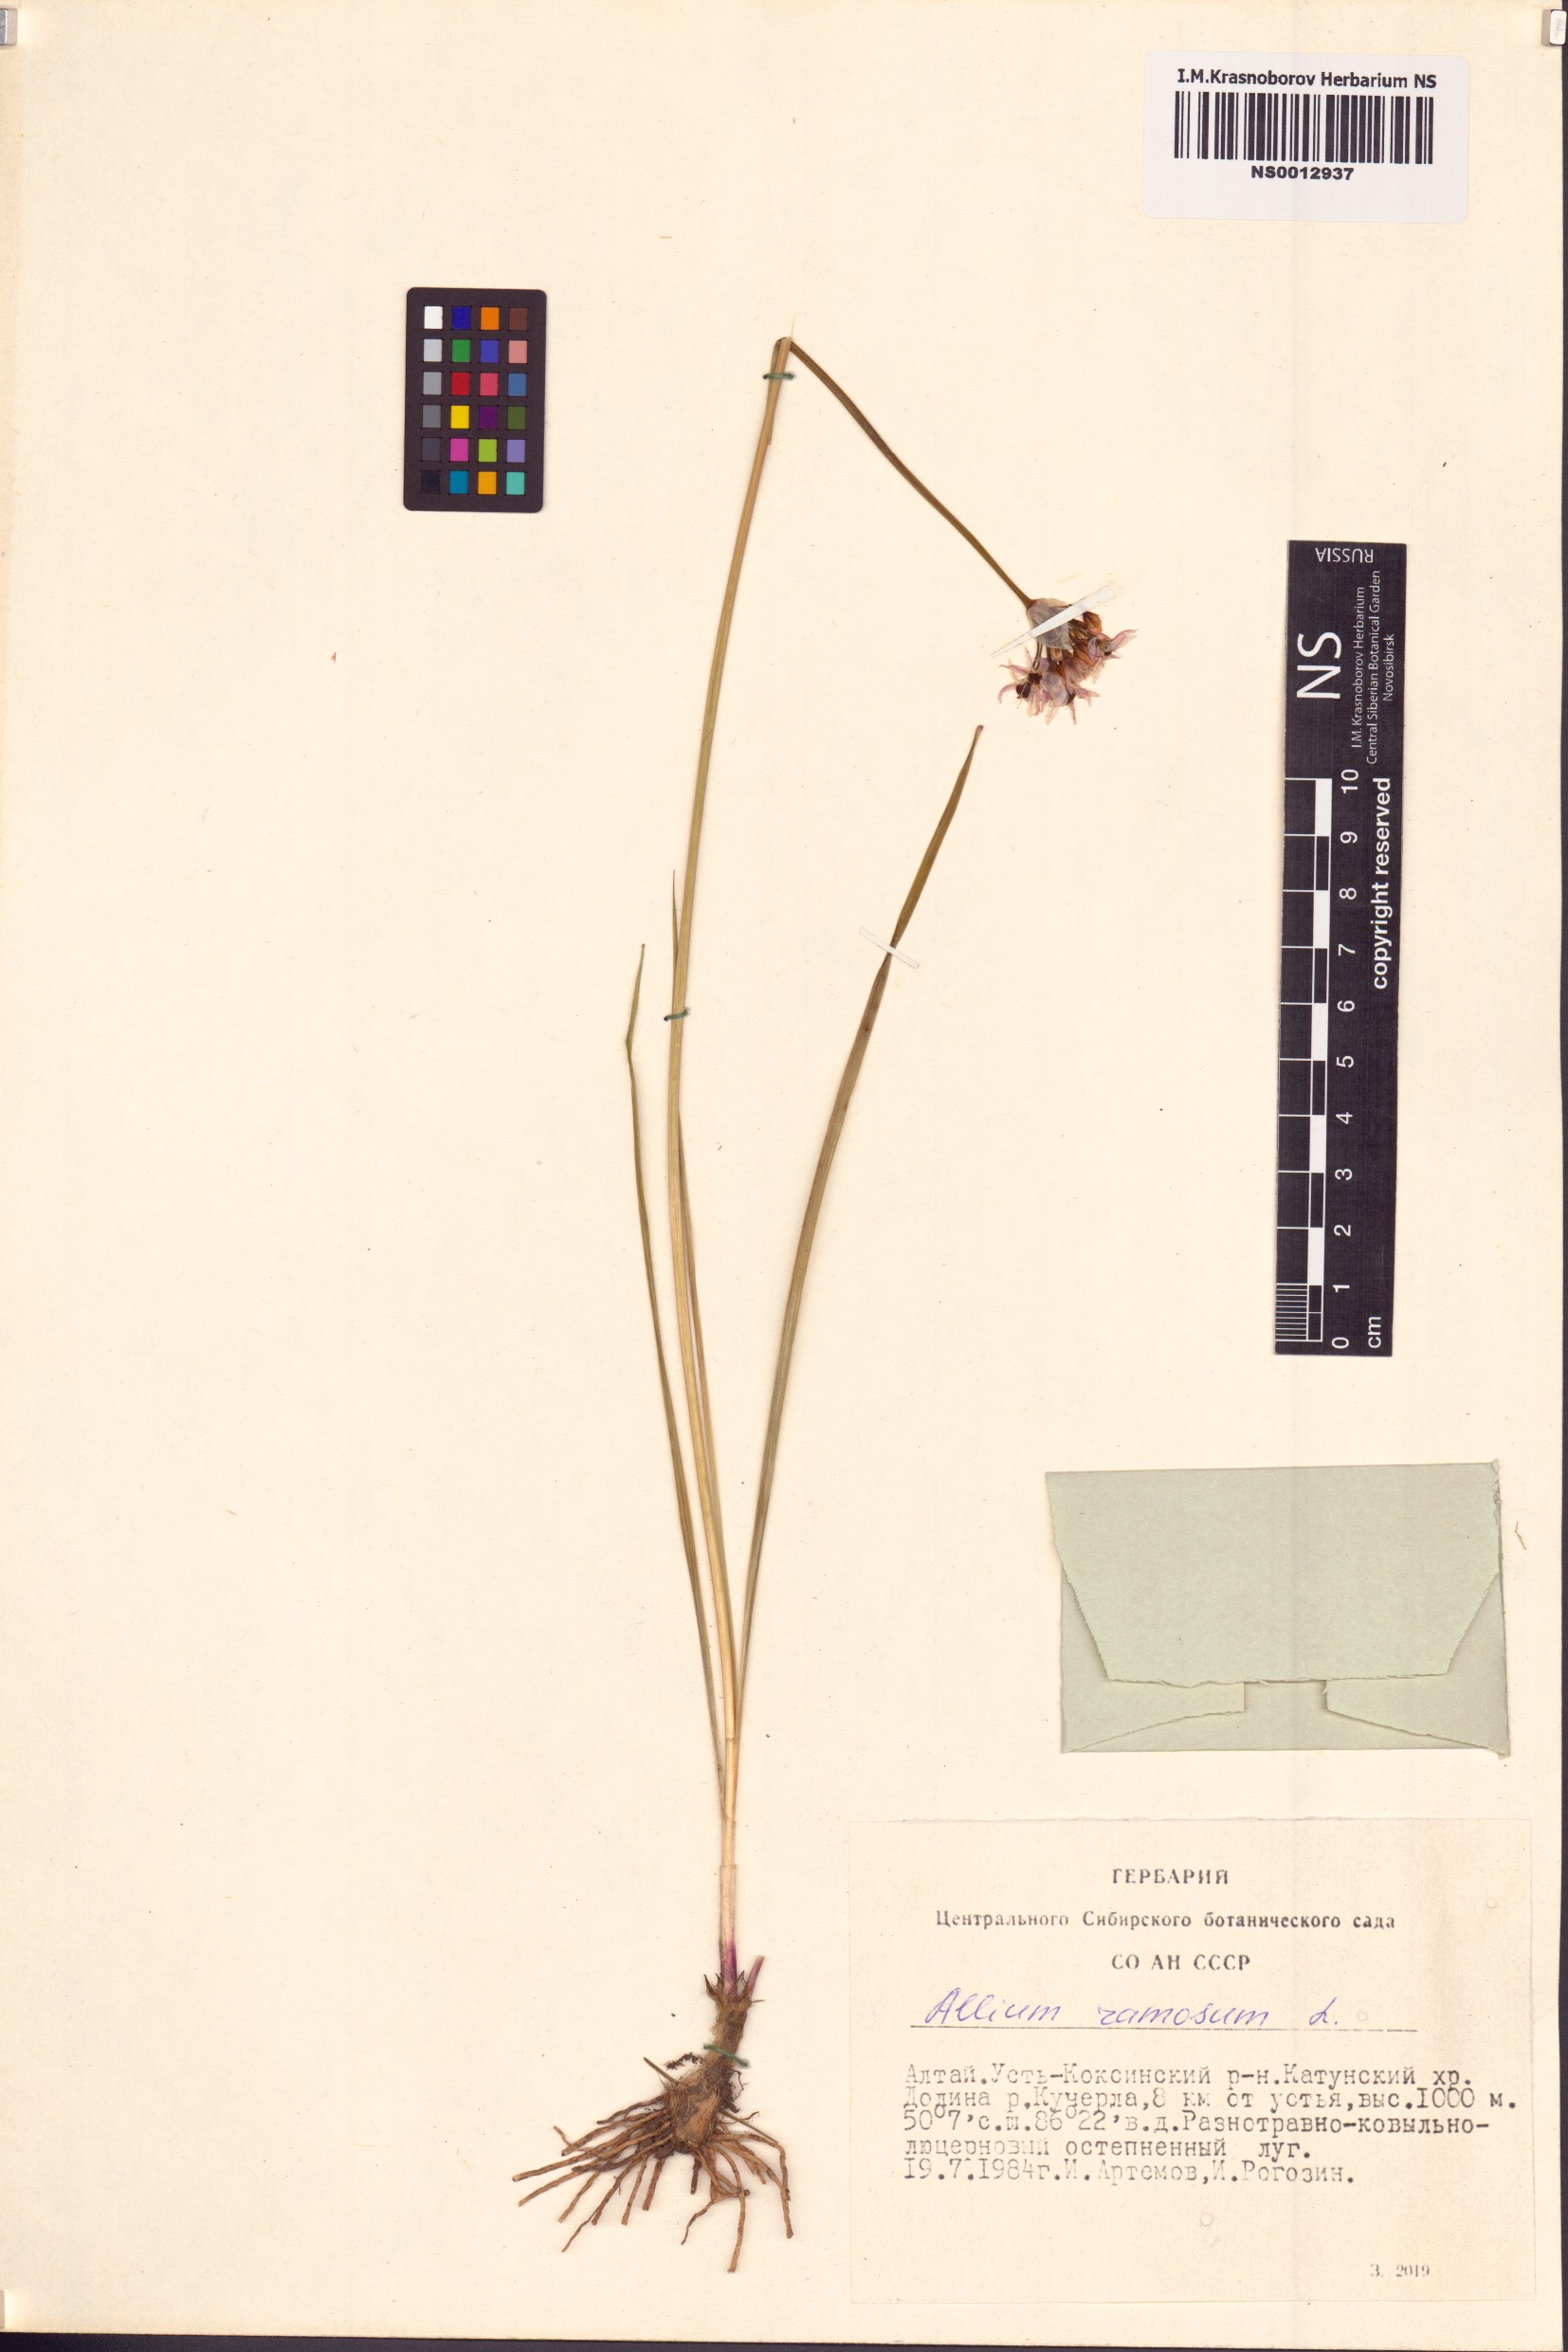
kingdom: Plantae
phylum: Tracheophyta
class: Liliopsida
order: Asparagales
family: Amaryllidaceae
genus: Allium
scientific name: Allium ramosum
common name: Fragrant garlic
